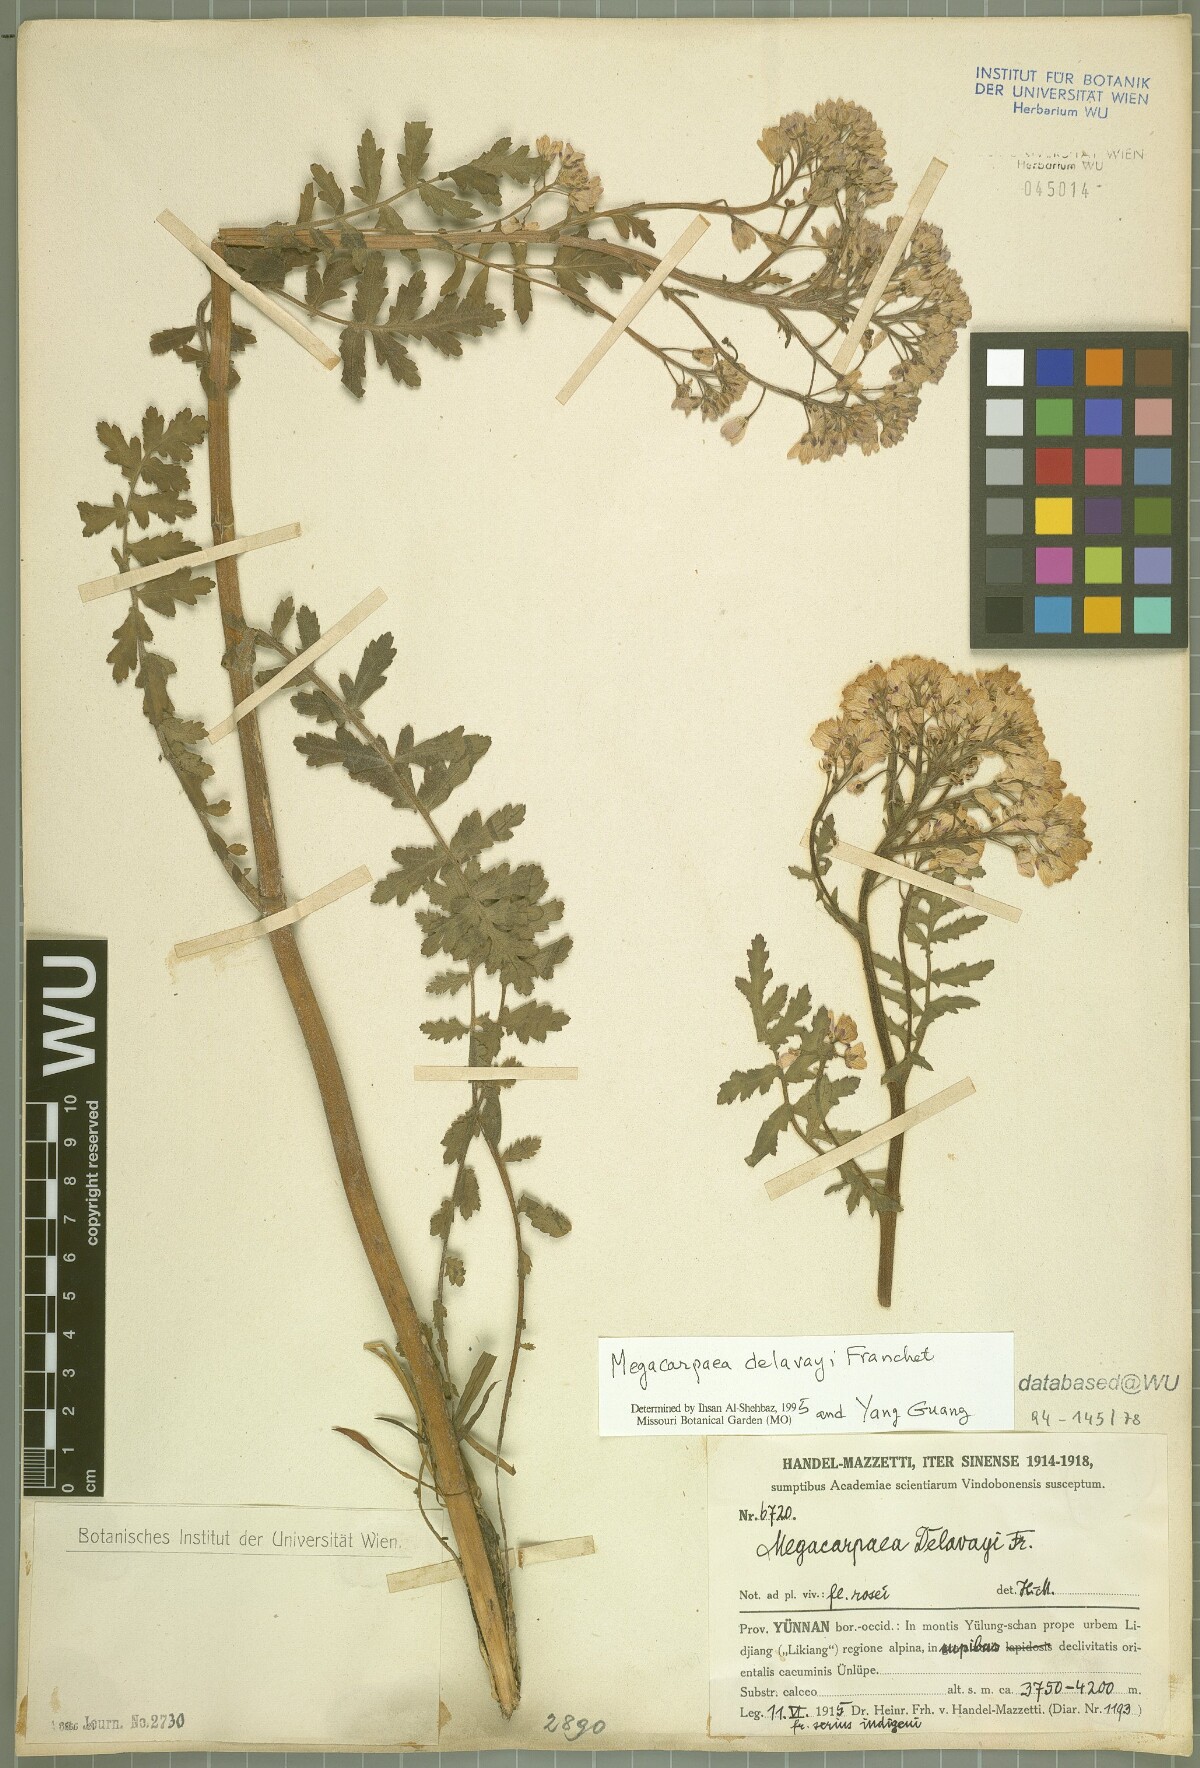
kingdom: Plantae
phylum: Tracheophyta
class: Magnoliopsida
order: Brassicales
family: Brassicaceae
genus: Megacarpaea
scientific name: Megacarpaea delavayi
